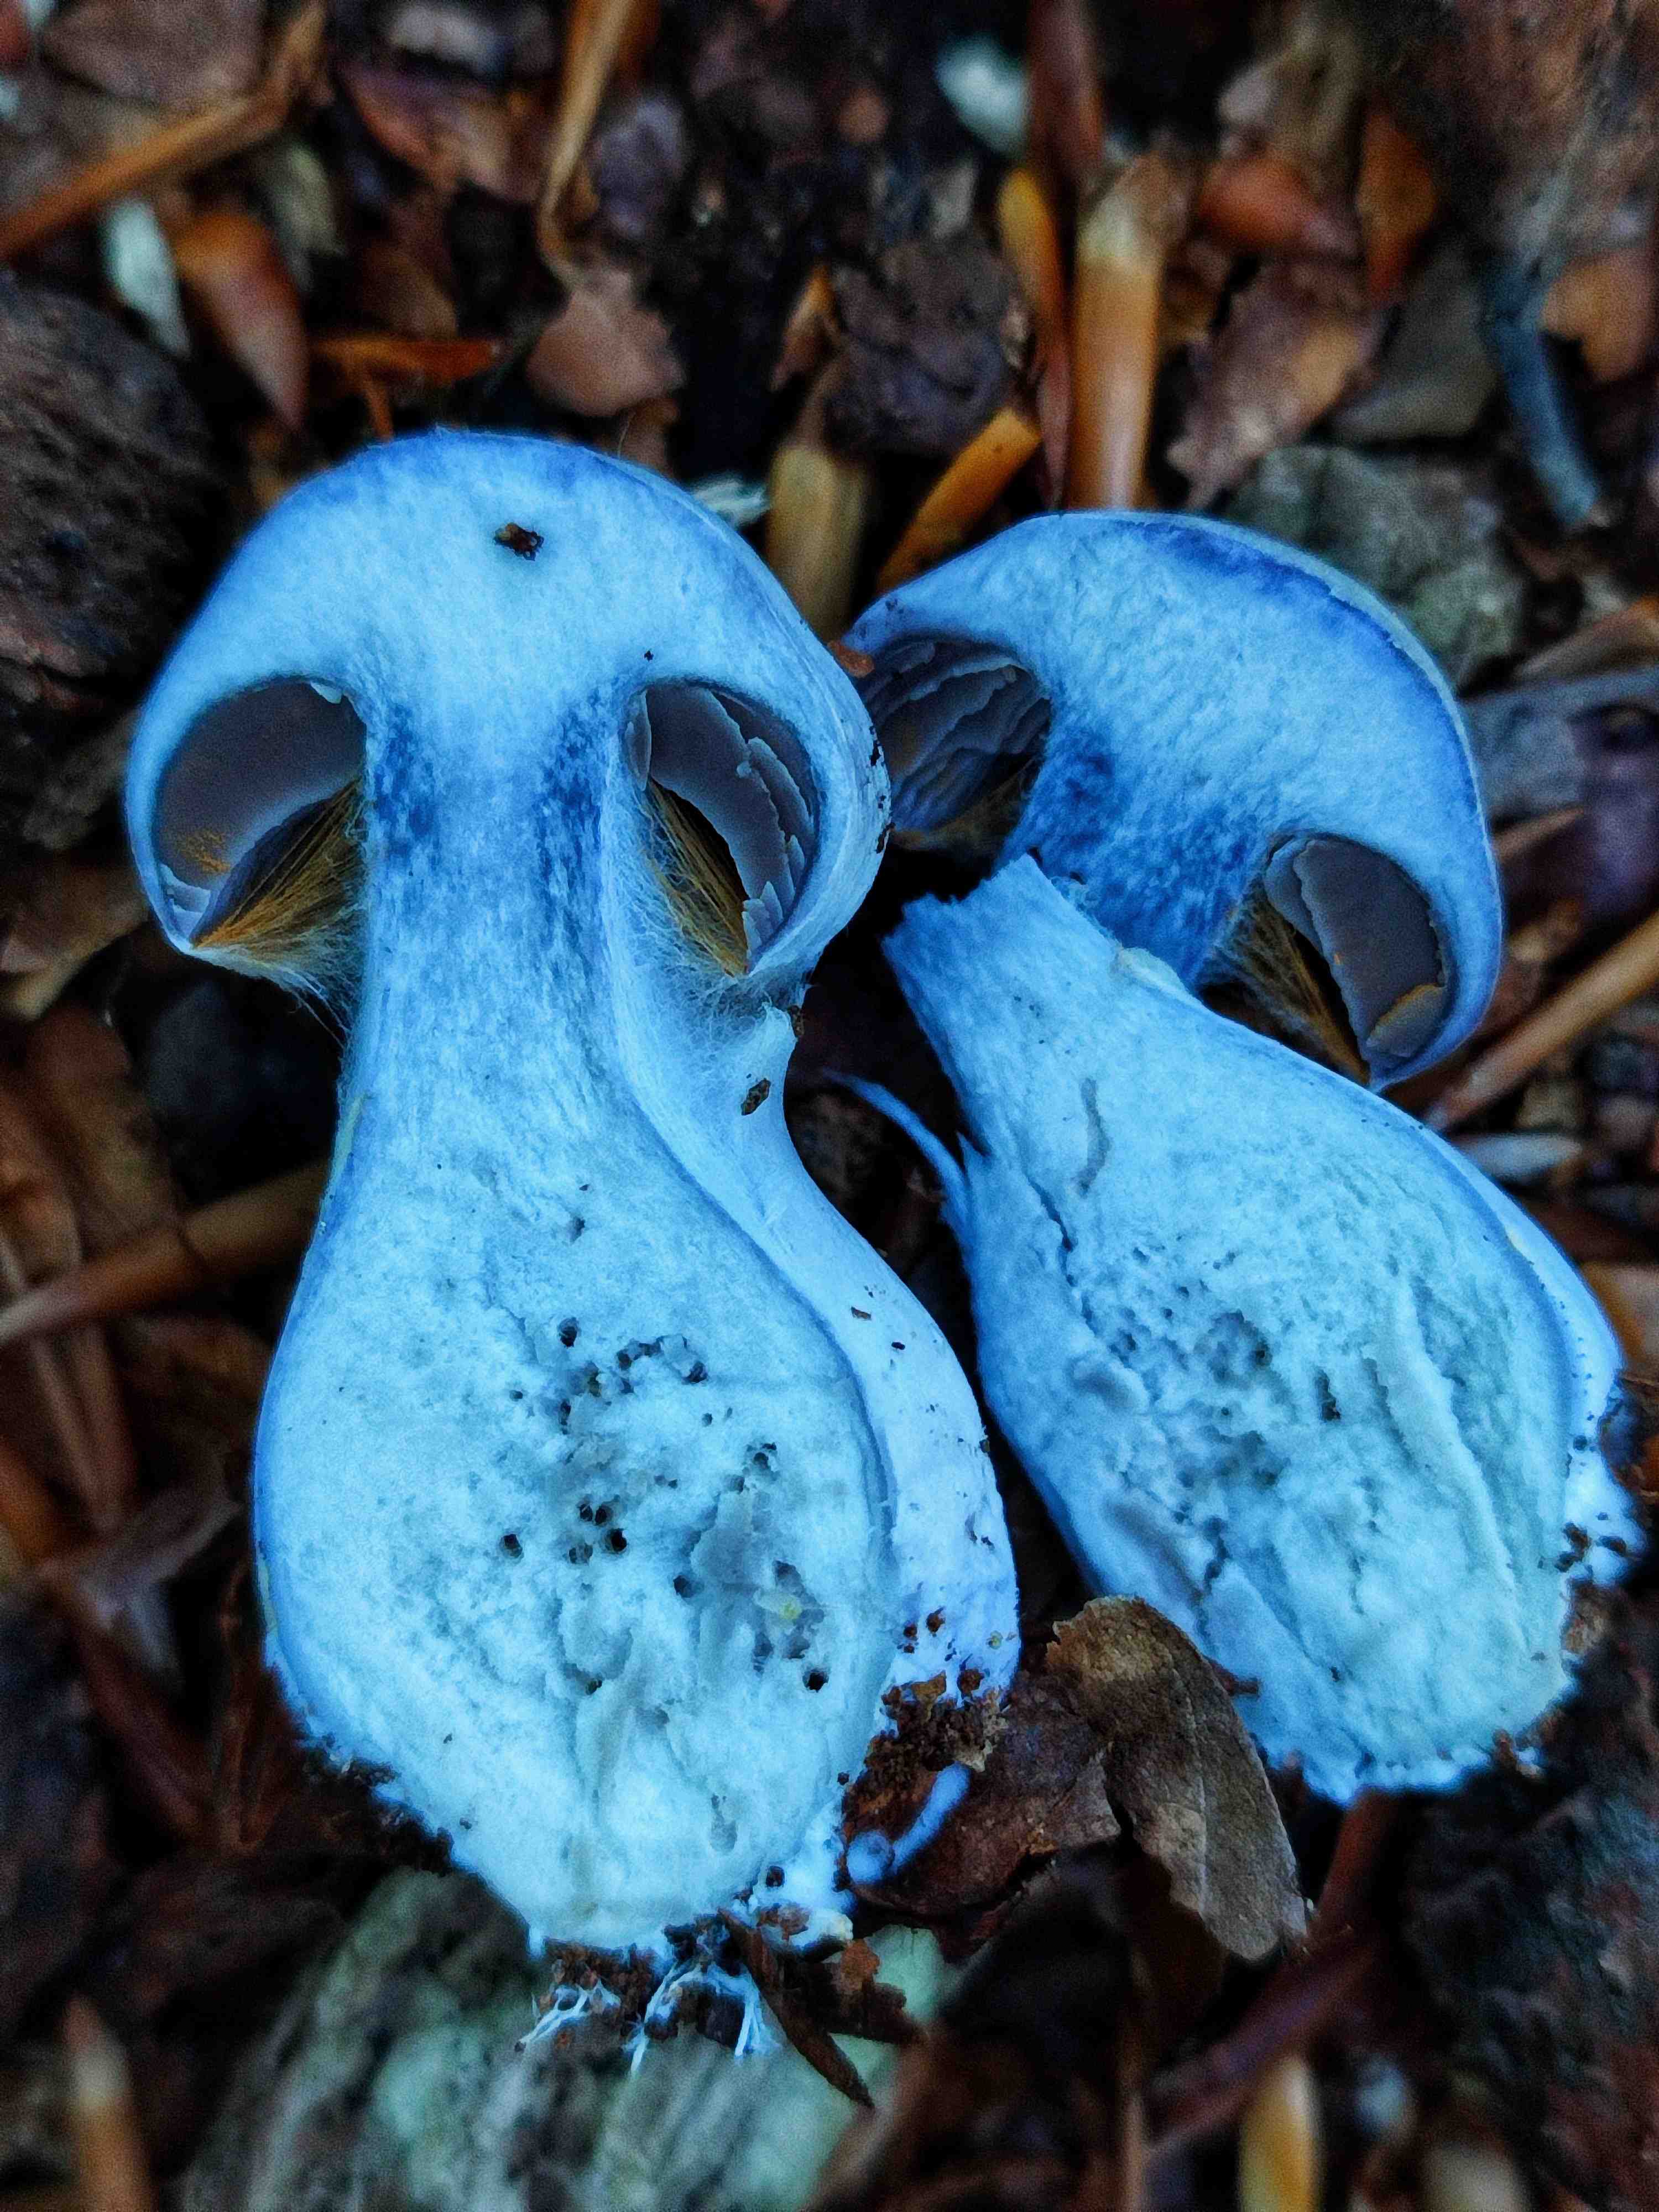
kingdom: Fungi
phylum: Basidiomycota
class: Agaricomycetes
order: Agaricales
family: Cortinariaceae
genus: Cortinarius
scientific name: Cortinarius alboviolaceus
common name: lysviolet slørhat
